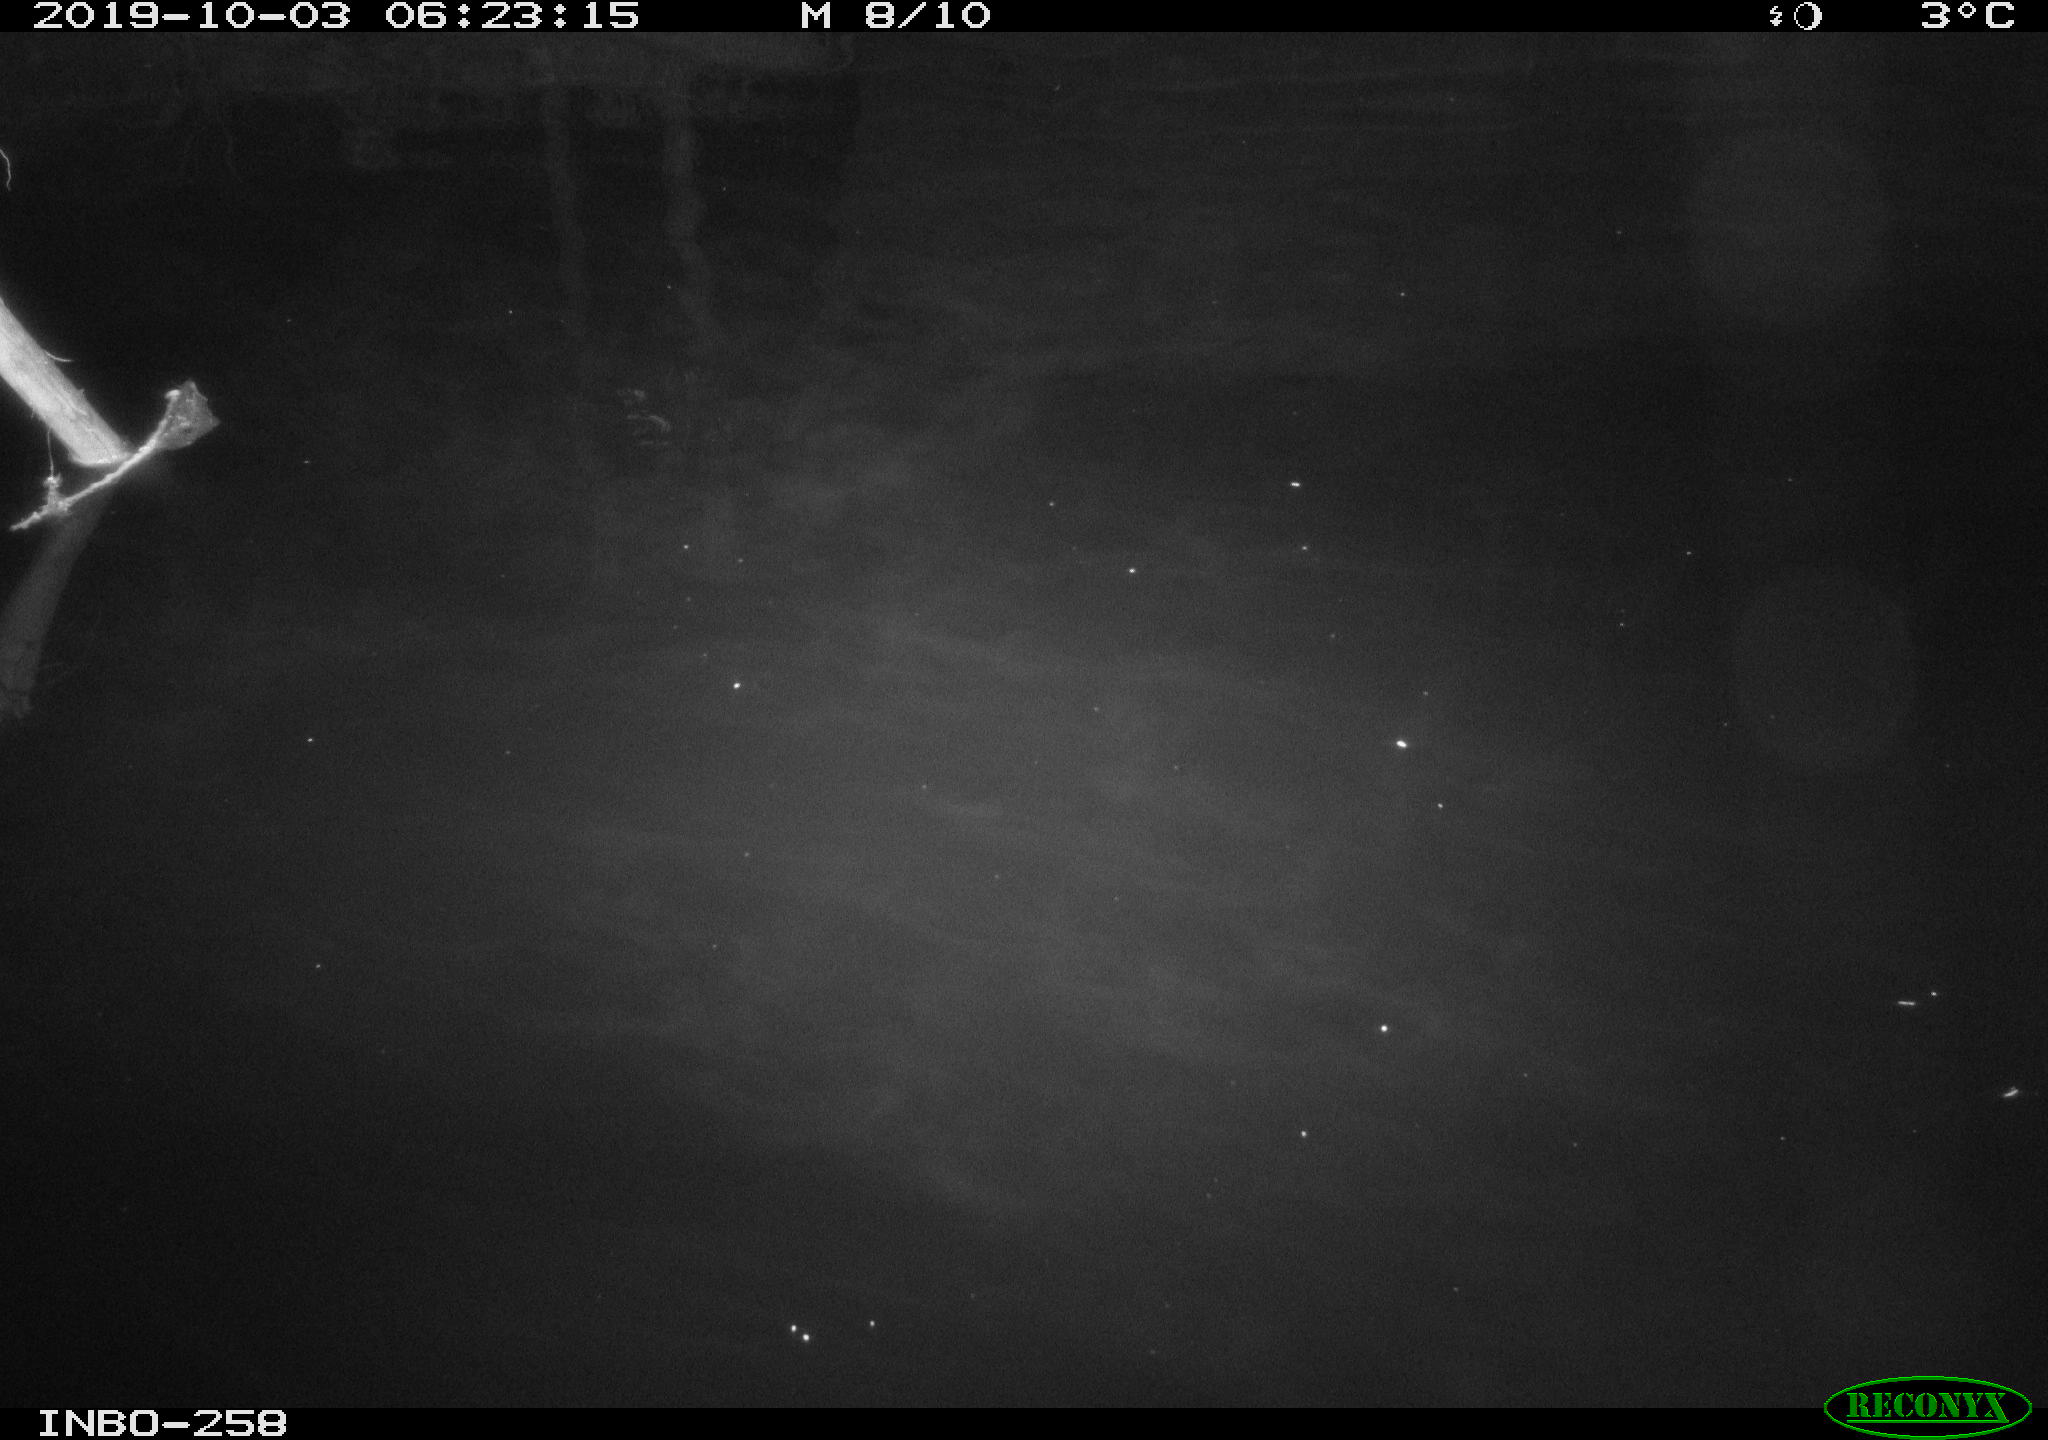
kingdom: Animalia
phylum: Chordata
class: Aves
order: Anseriformes
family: Anatidae
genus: Anas
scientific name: Anas platyrhynchos
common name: Mallard
